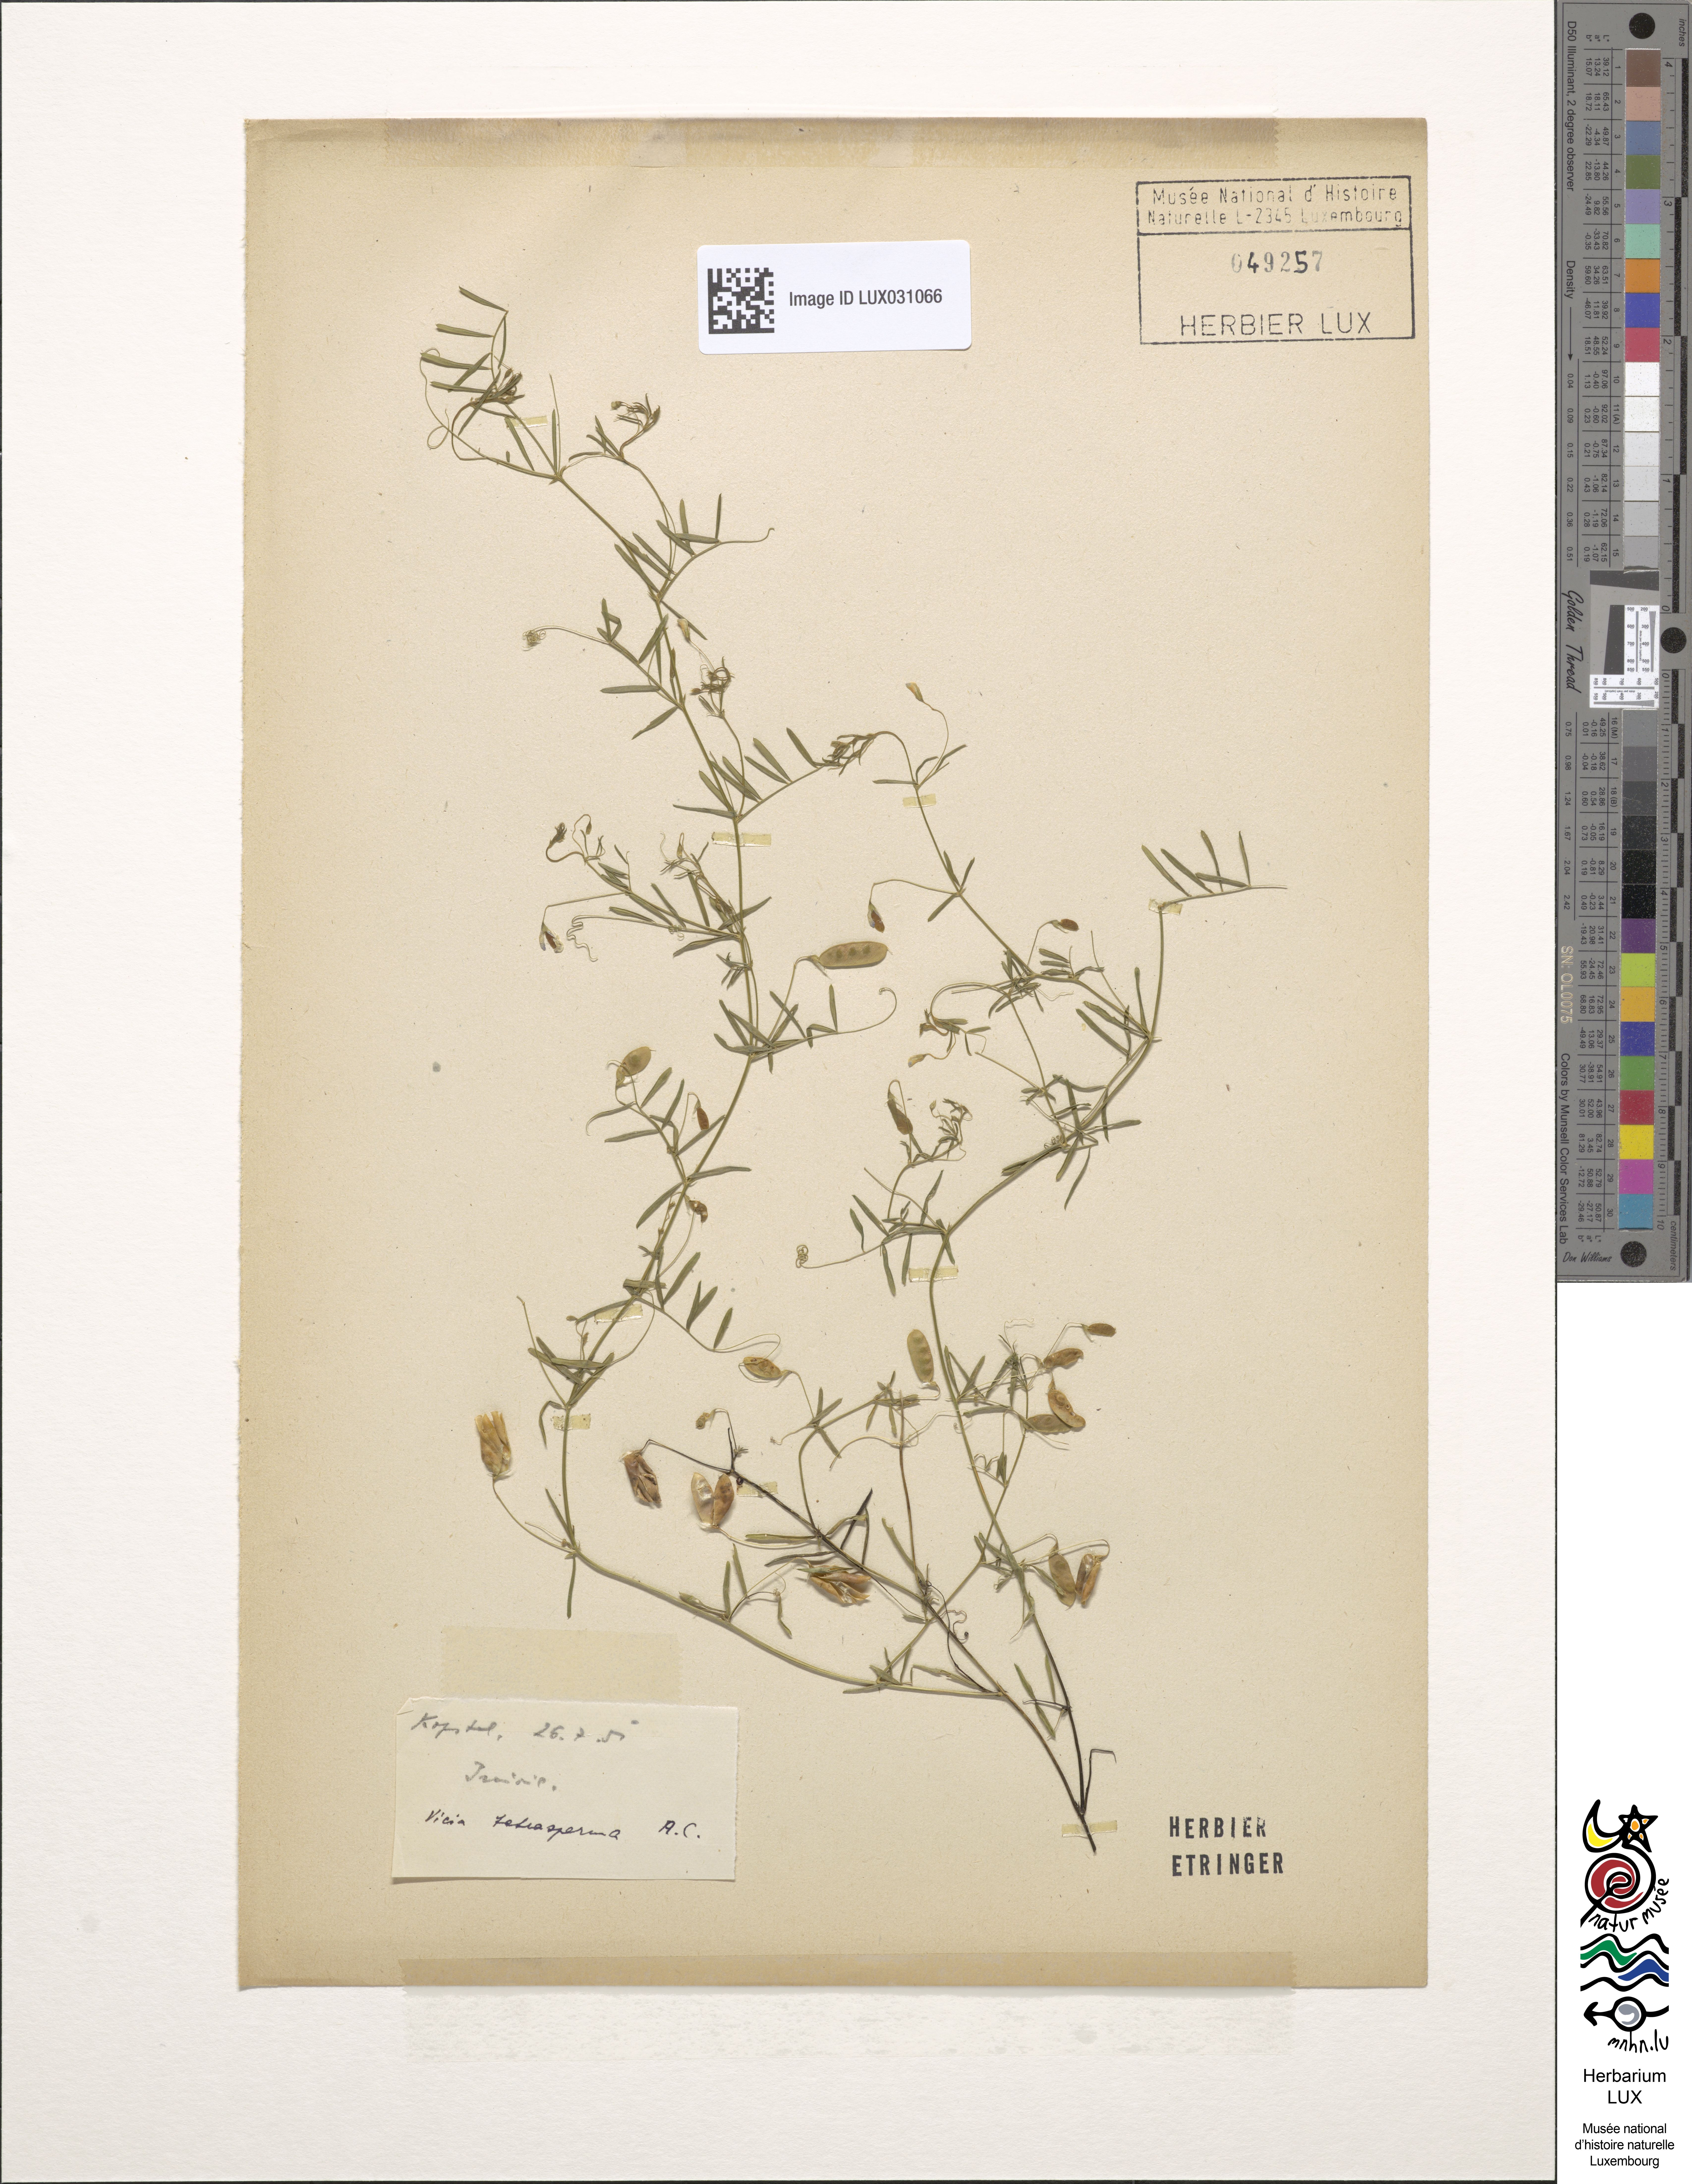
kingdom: Plantae
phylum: Tracheophyta
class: Magnoliopsida
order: Fabales
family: Fabaceae
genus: Vicia
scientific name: Vicia tetrasperma
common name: Smooth tare
